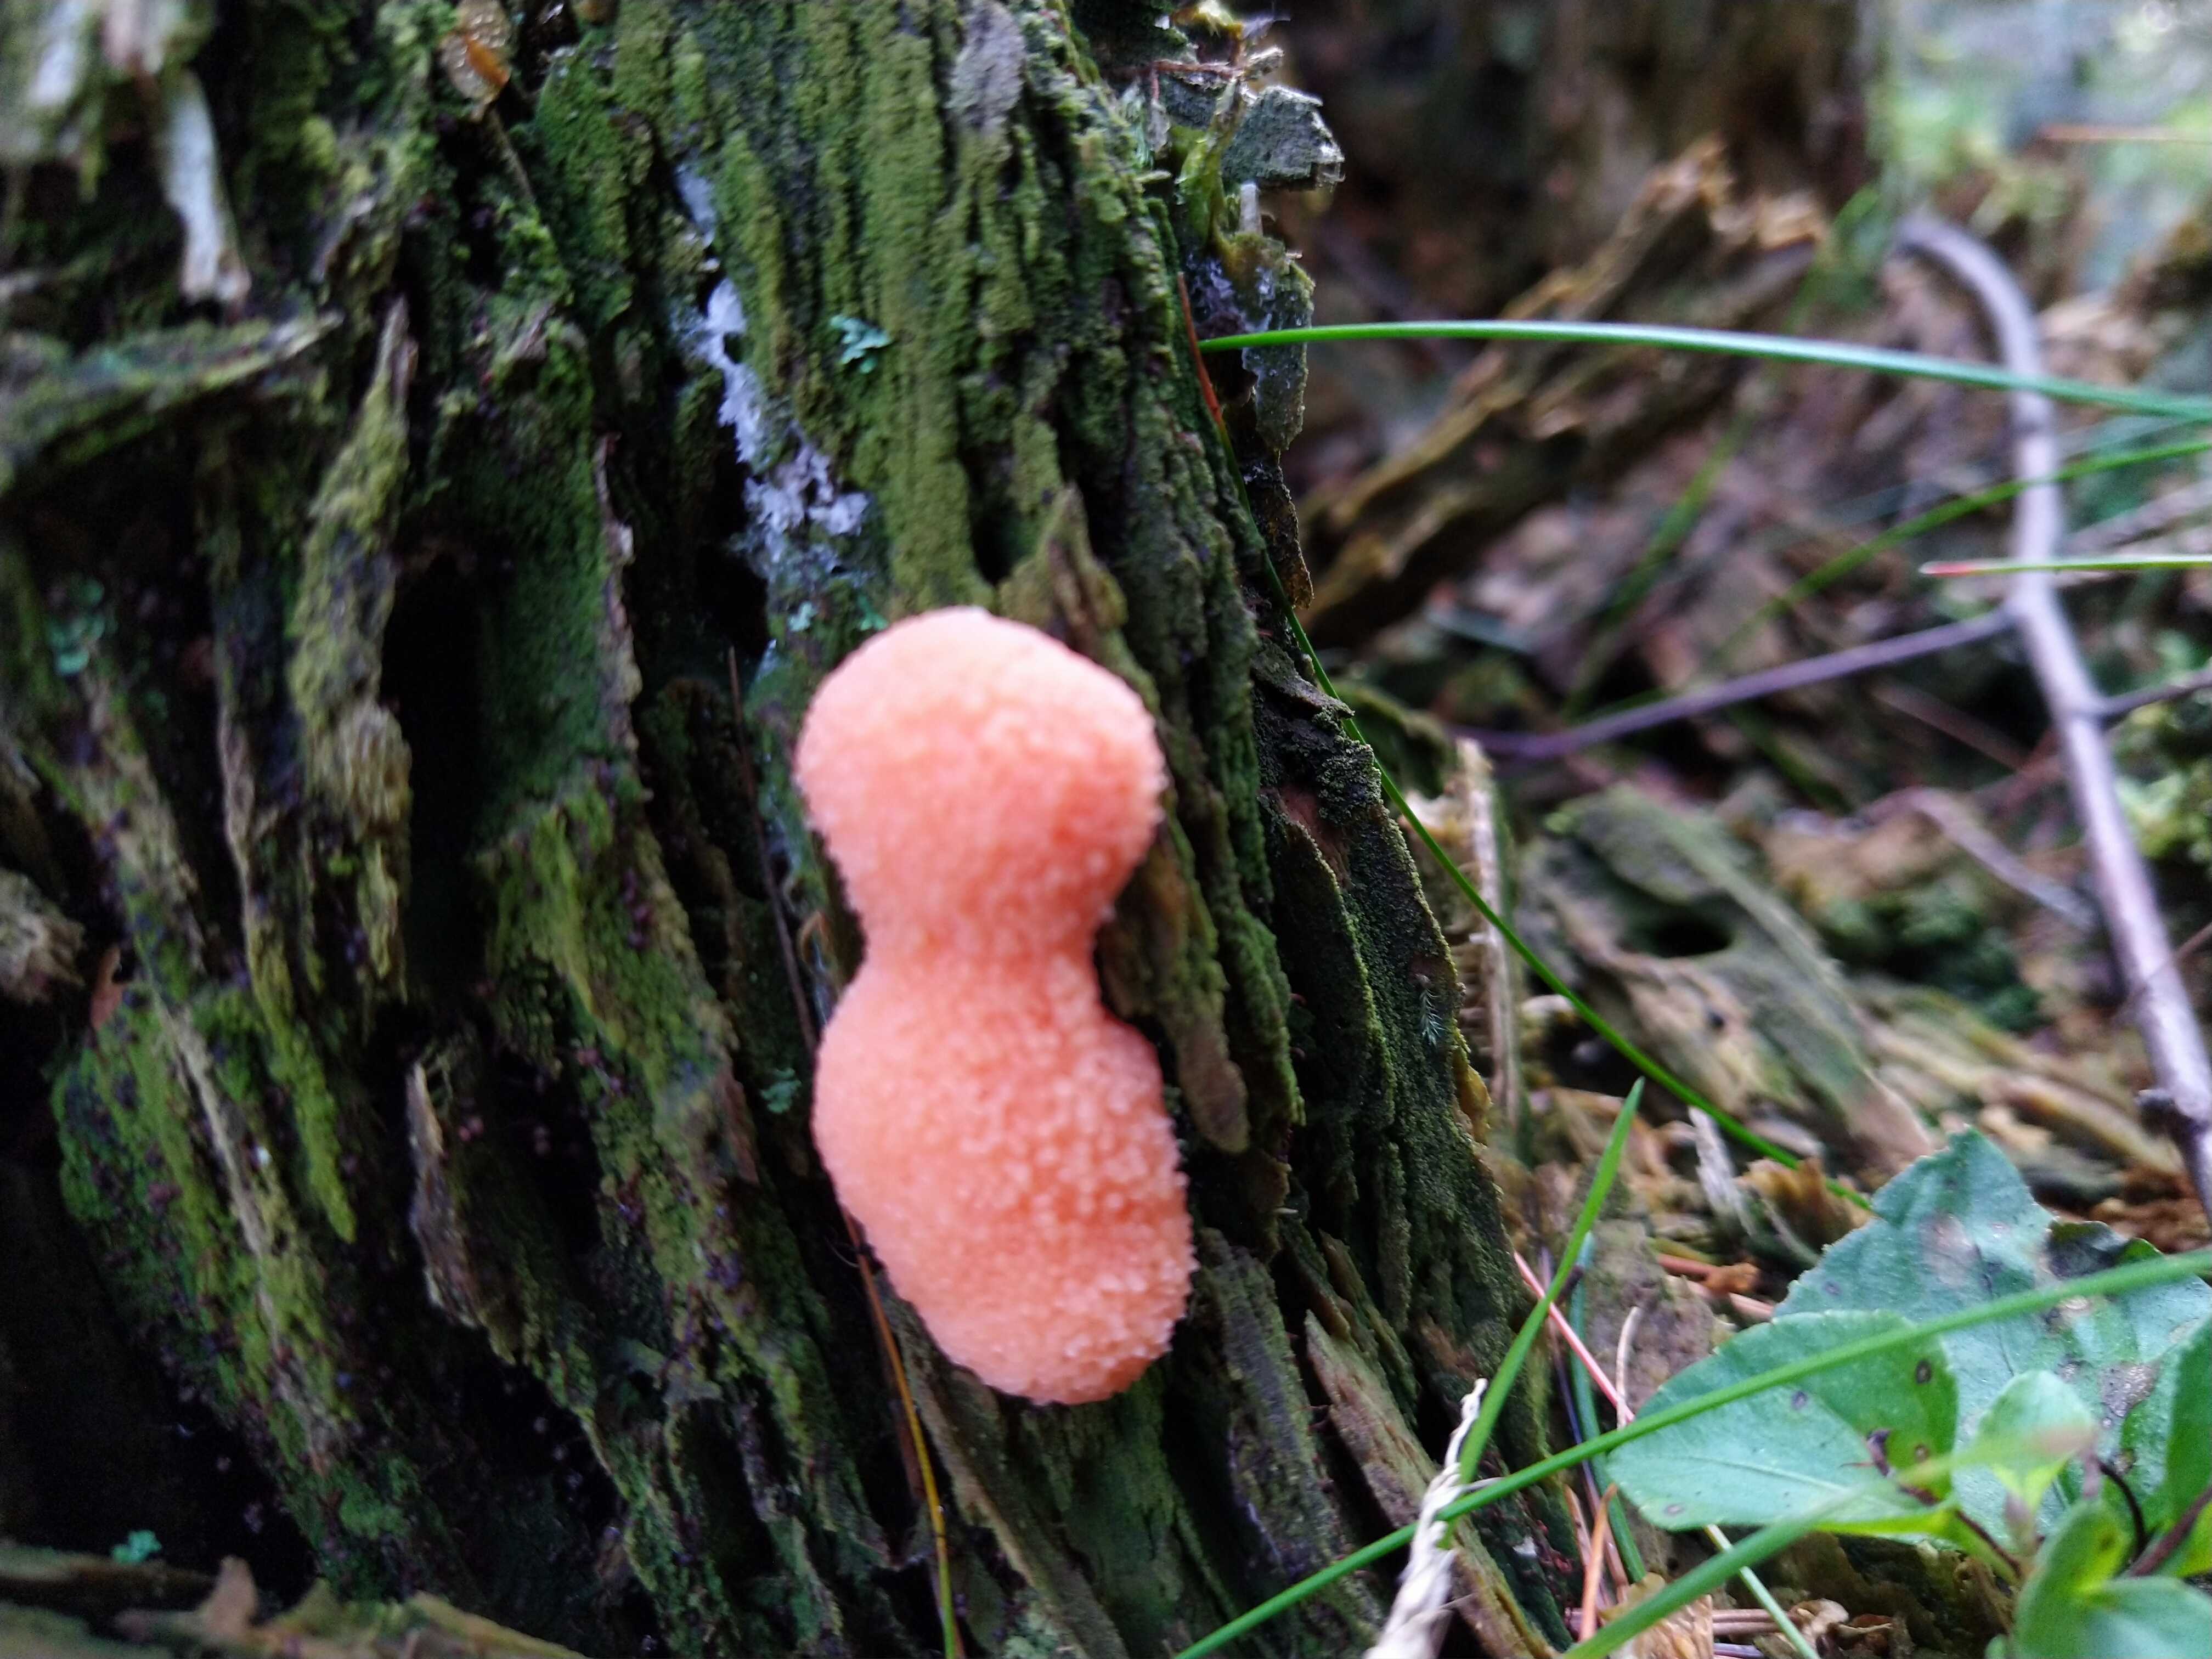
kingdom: Protozoa
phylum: Mycetozoa
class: Myxomycetes
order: Cribrariales
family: Tubiferaceae
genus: Tubifera
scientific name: Tubifera ferruginosa
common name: kanel-støvrør
